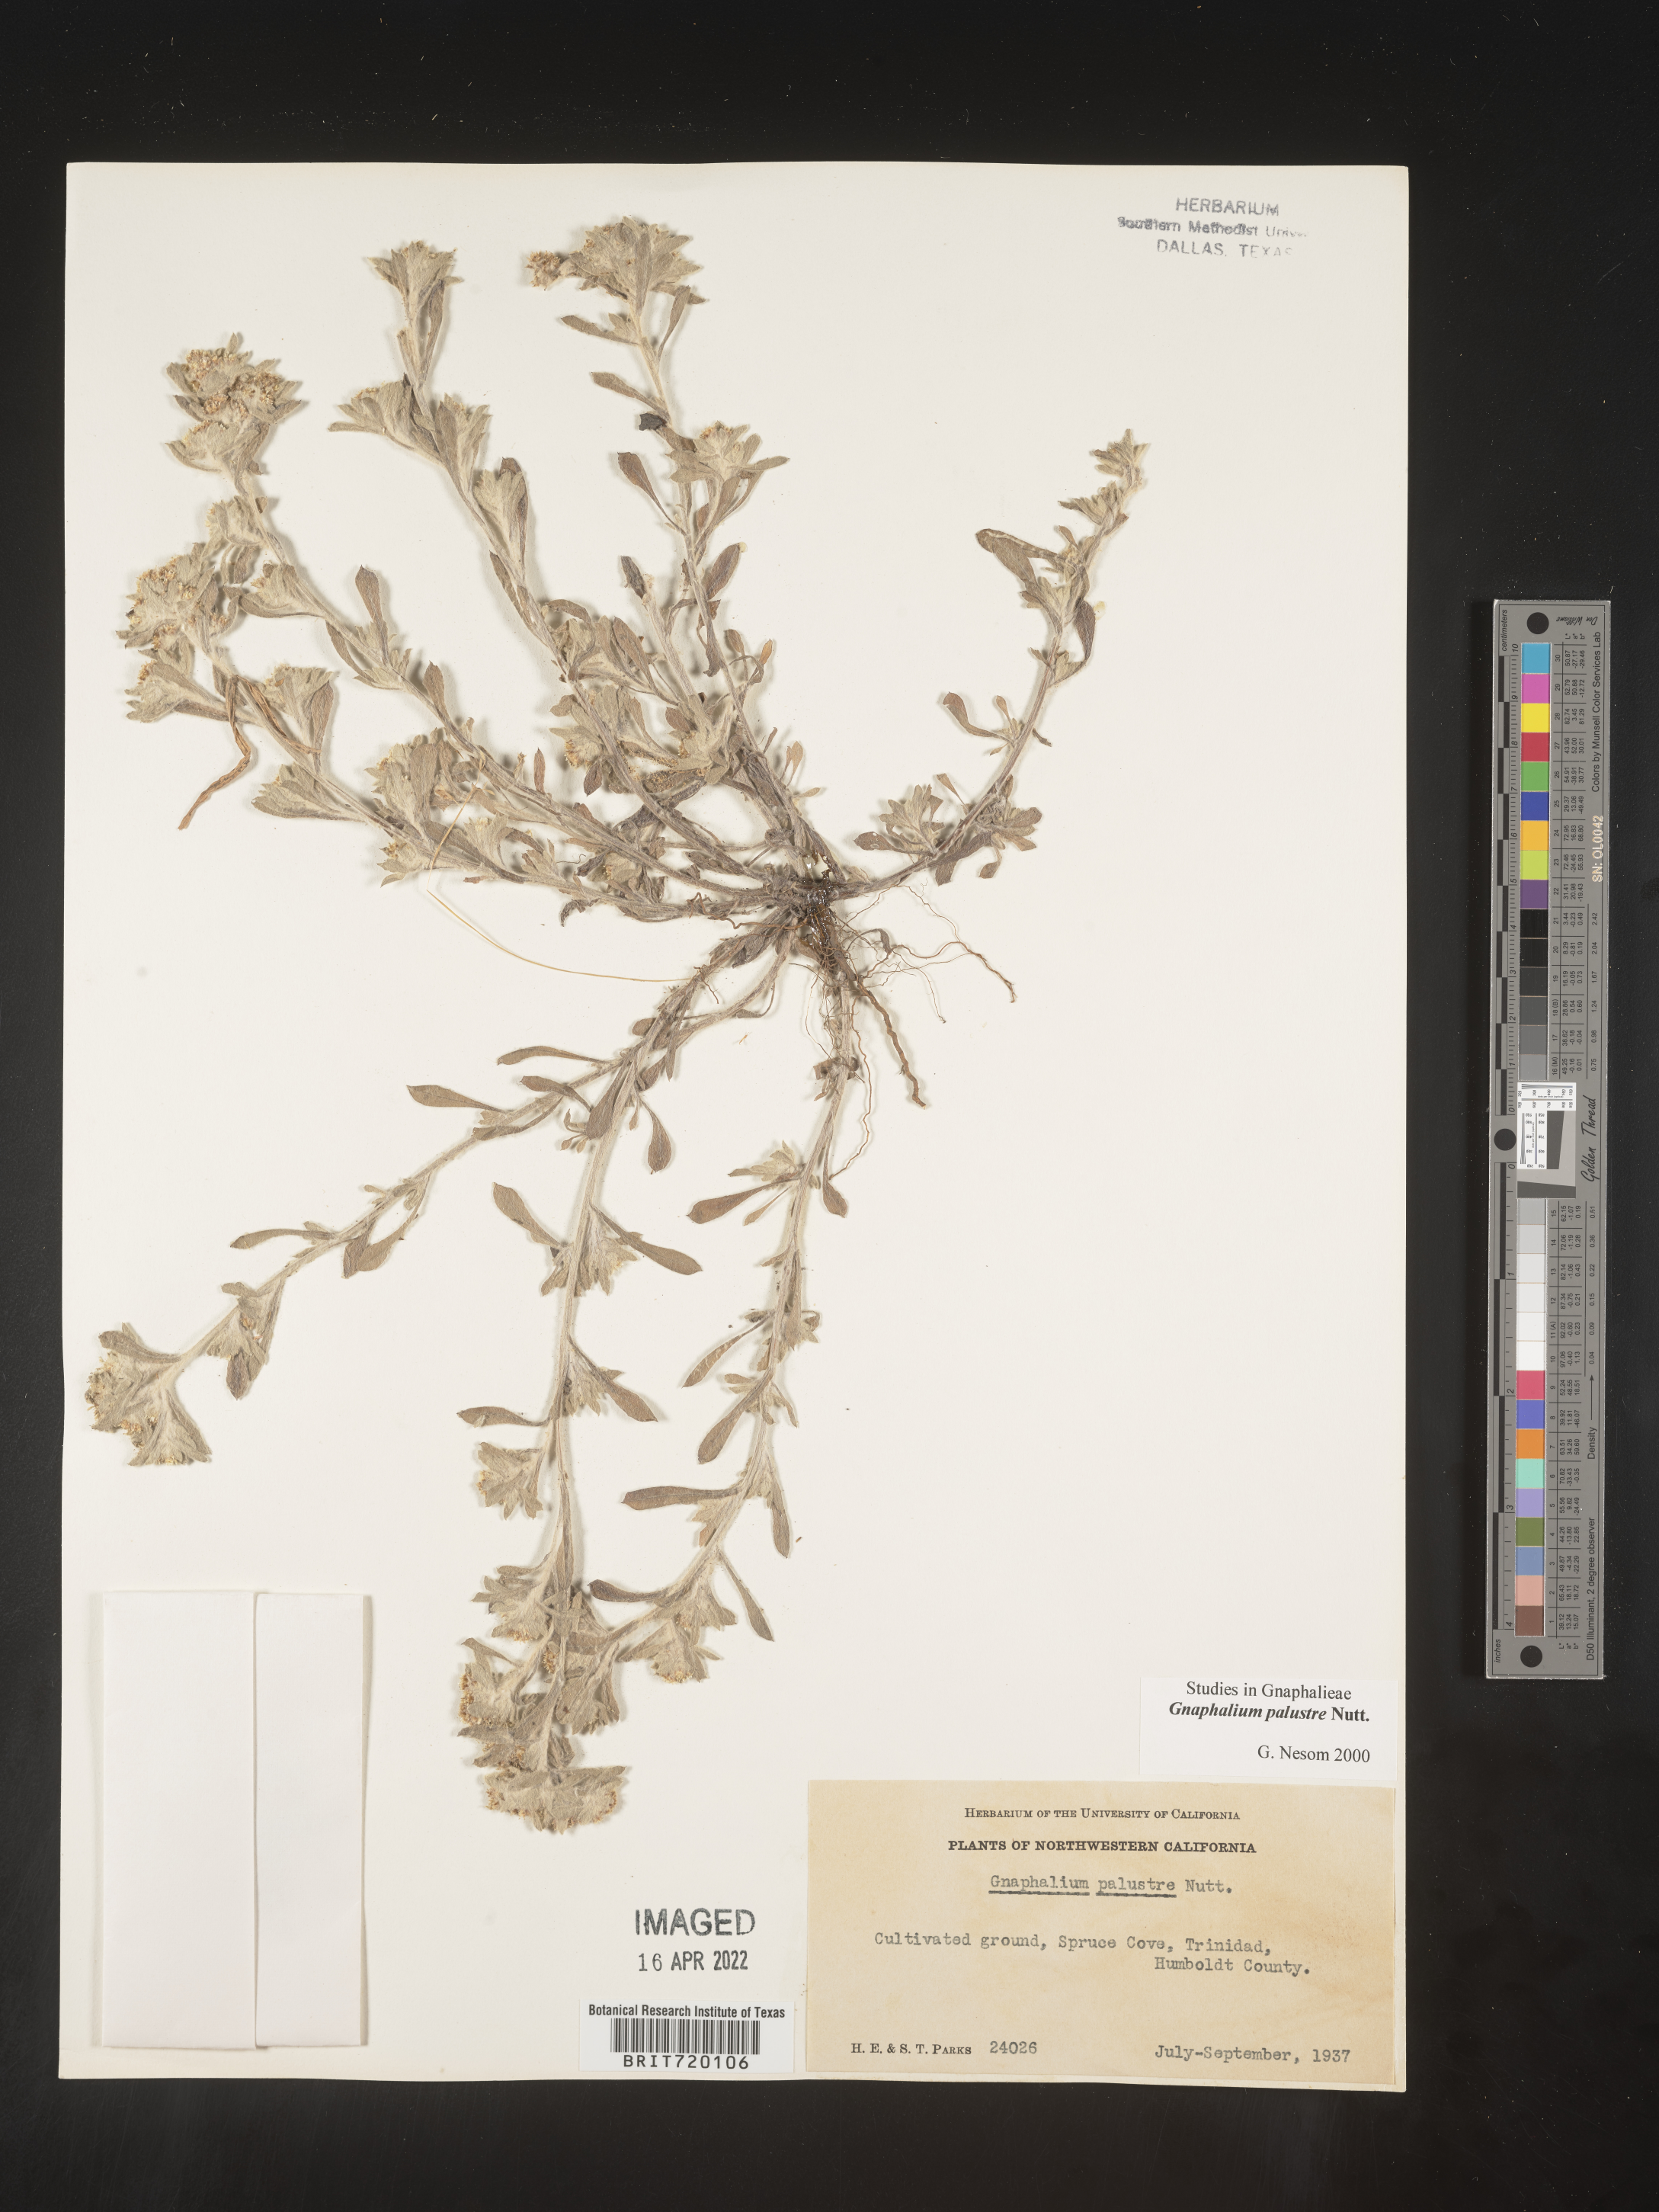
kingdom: Plantae
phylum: Tracheophyta
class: Magnoliopsida
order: Asterales
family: Asteraceae
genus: Gnaphalium
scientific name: Gnaphalium palustre
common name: Western marsh cudweed
